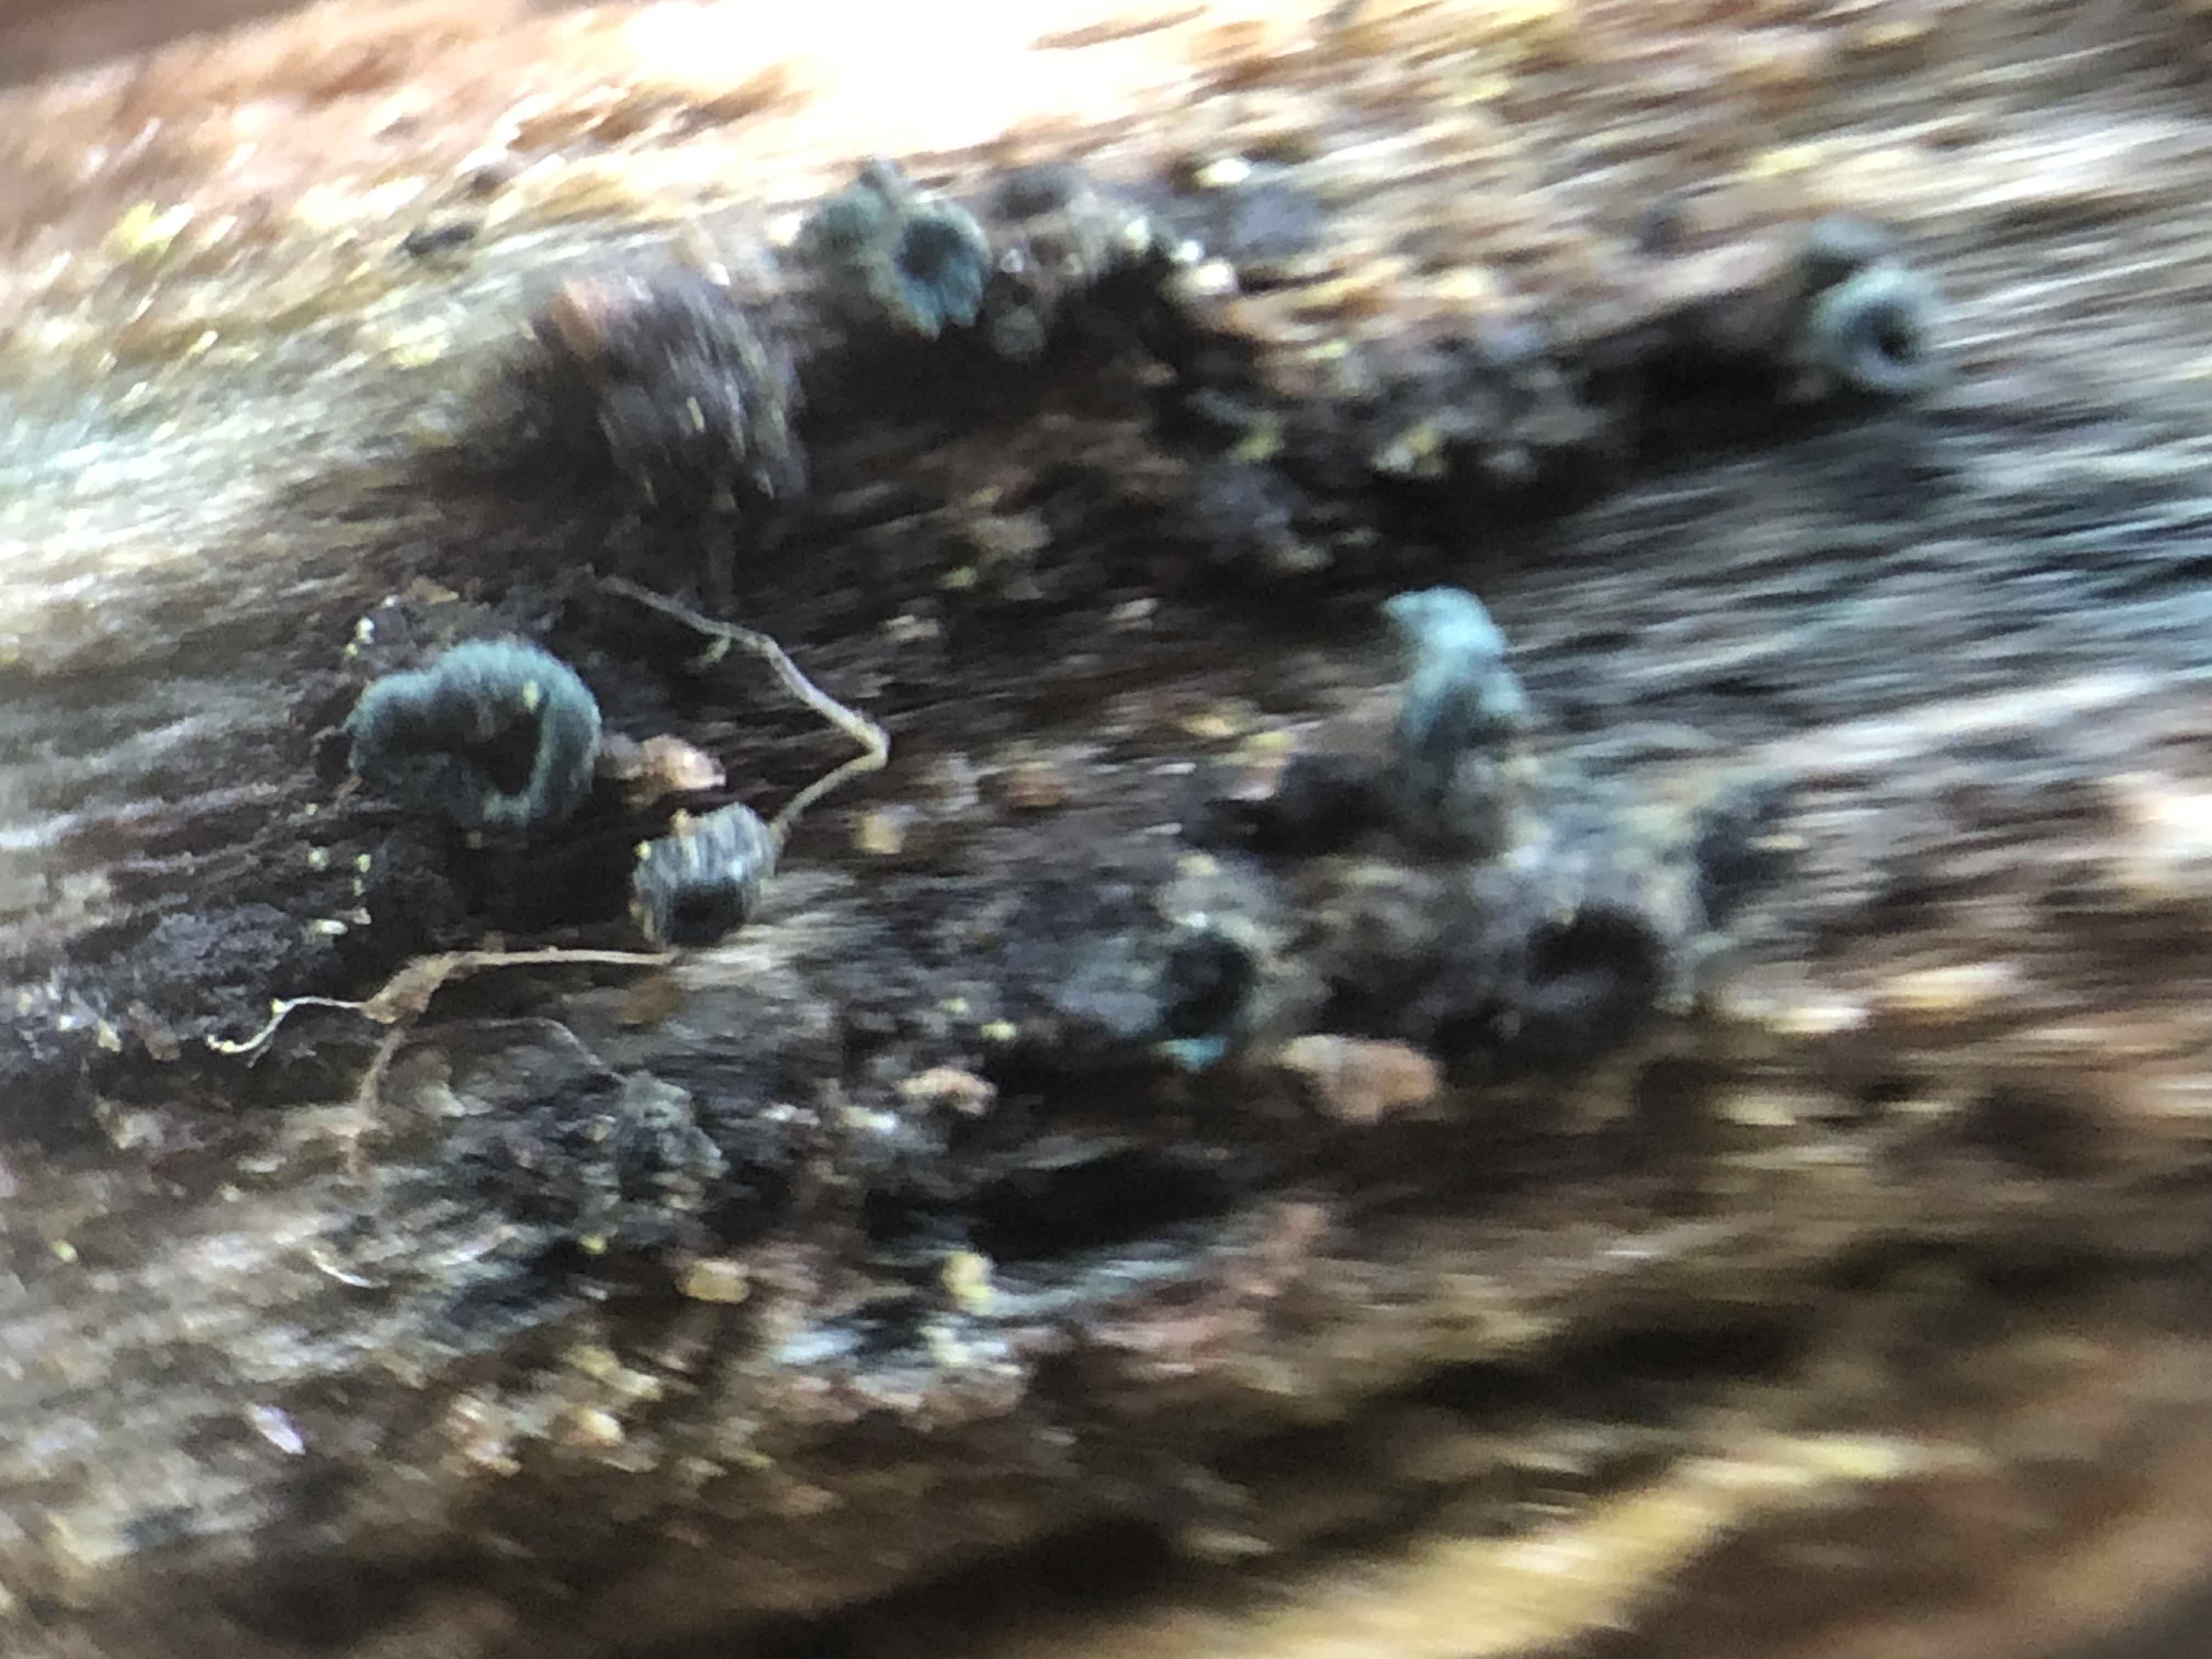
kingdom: Fungi
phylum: Ascomycota
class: Leotiomycetes
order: Helotiales
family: Chlorociboriaceae
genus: Chlorociboria
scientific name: Chlorociboria aeruginascens
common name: almindelig grønskive
